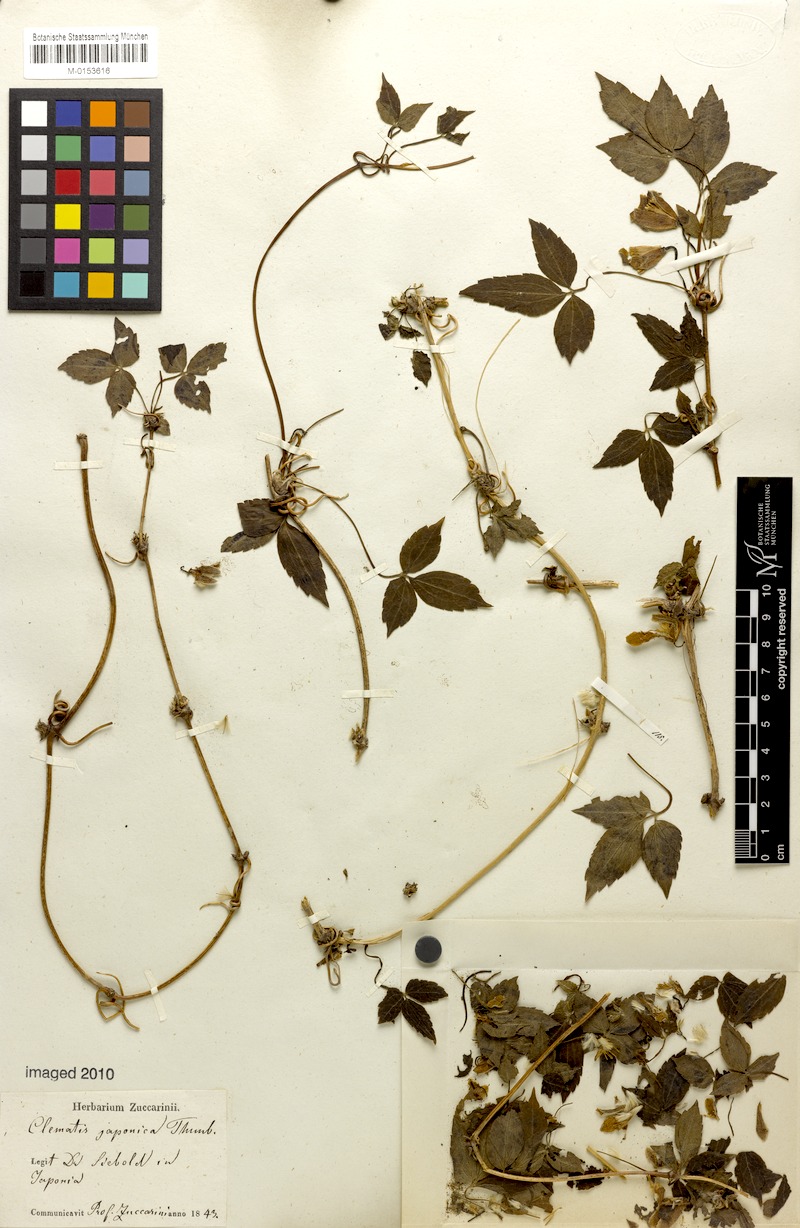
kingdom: Plantae
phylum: Tracheophyta
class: Magnoliopsida
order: Ranunculales
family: Ranunculaceae
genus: Clematis
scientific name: Clematis japonica
